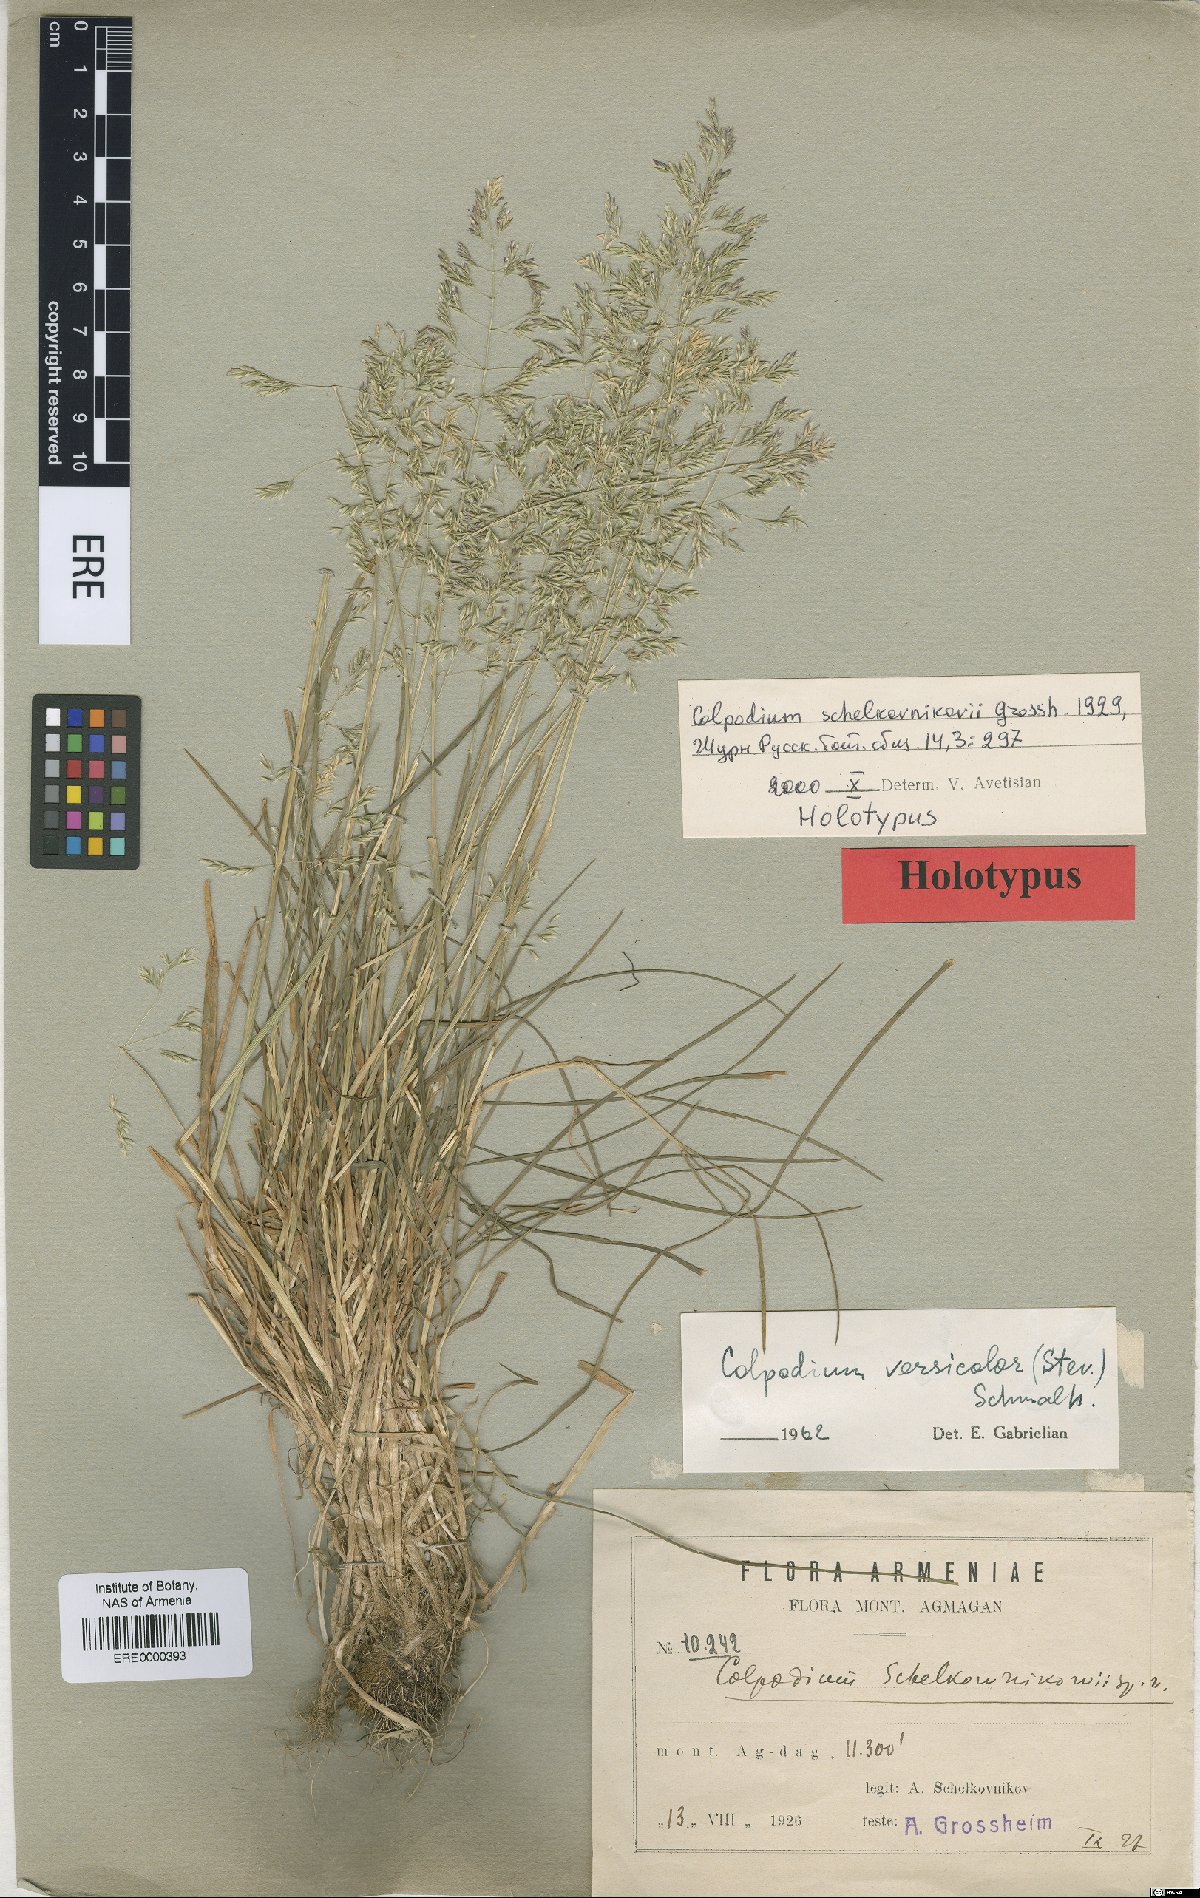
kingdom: Plantae
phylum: Tracheophyta
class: Liliopsida
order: Poales
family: Poaceae
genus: Colpodium
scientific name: Colpodium versicolor
